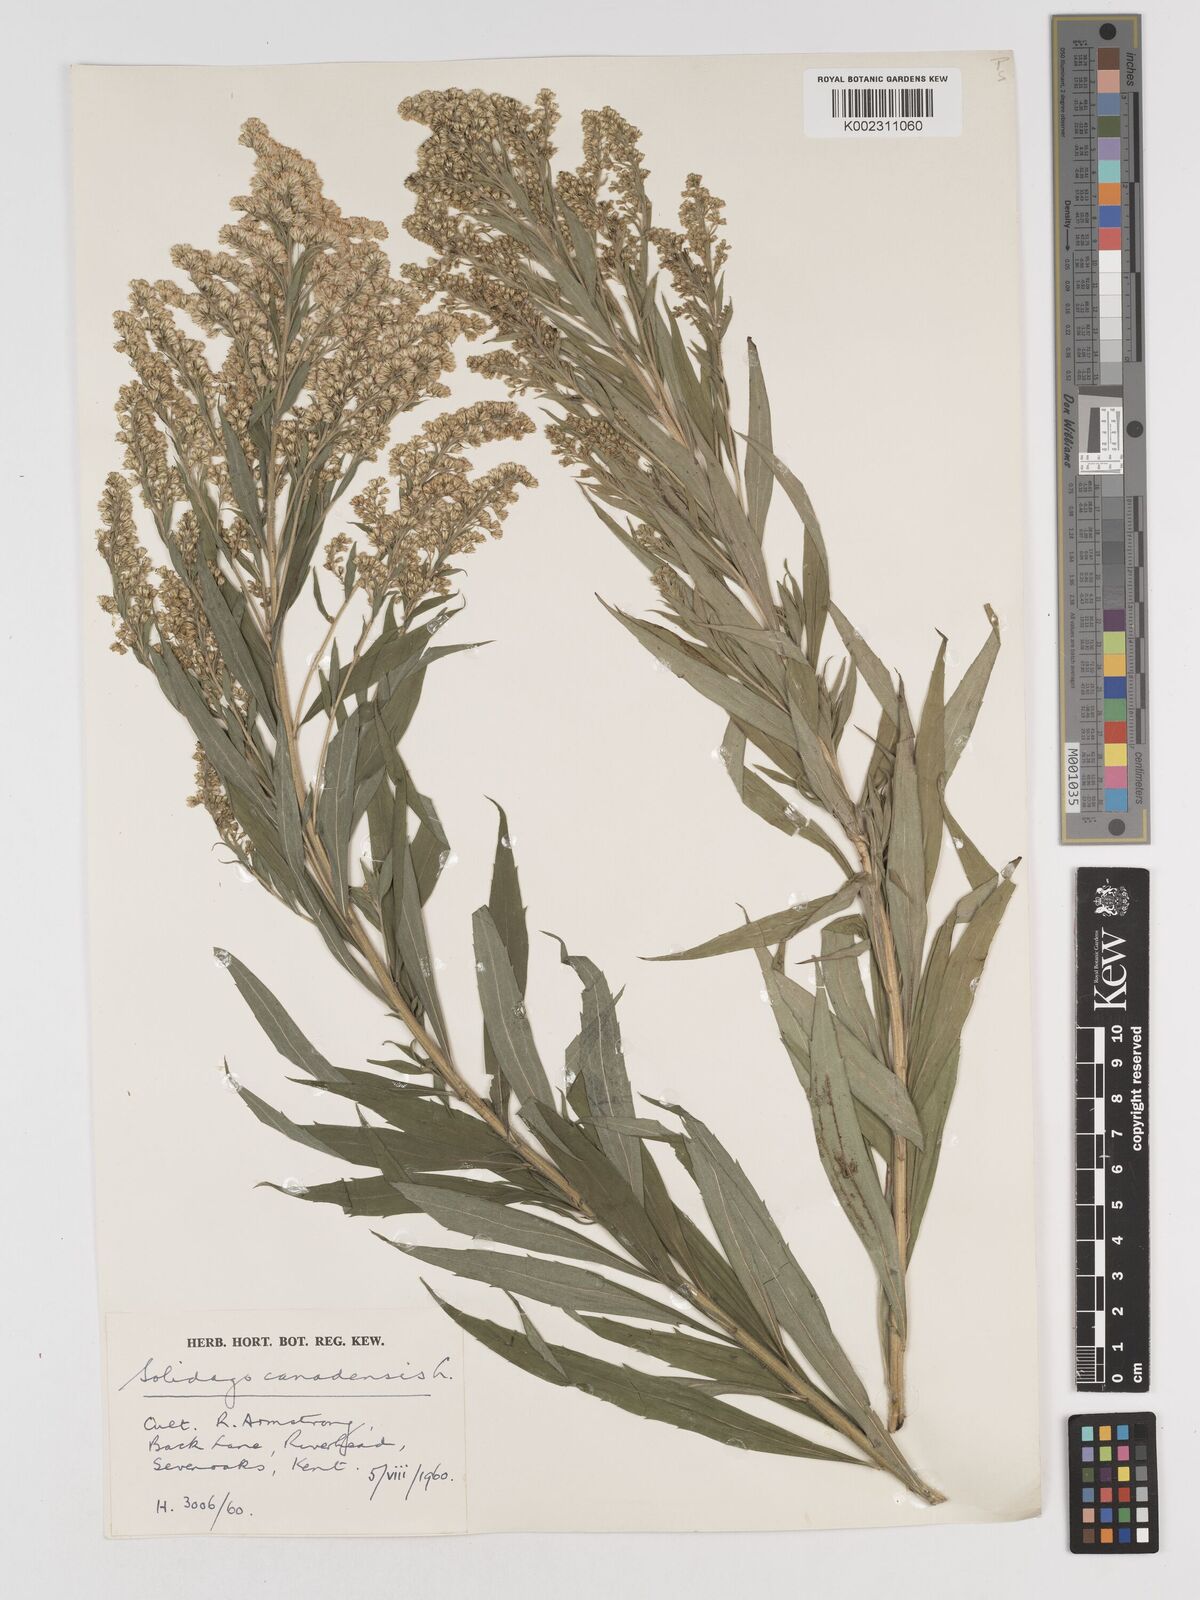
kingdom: Plantae
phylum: Tracheophyta
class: Magnoliopsida
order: Asterales
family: Asteraceae
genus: Solidago
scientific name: Solidago canadensis
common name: Canada goldenrod
